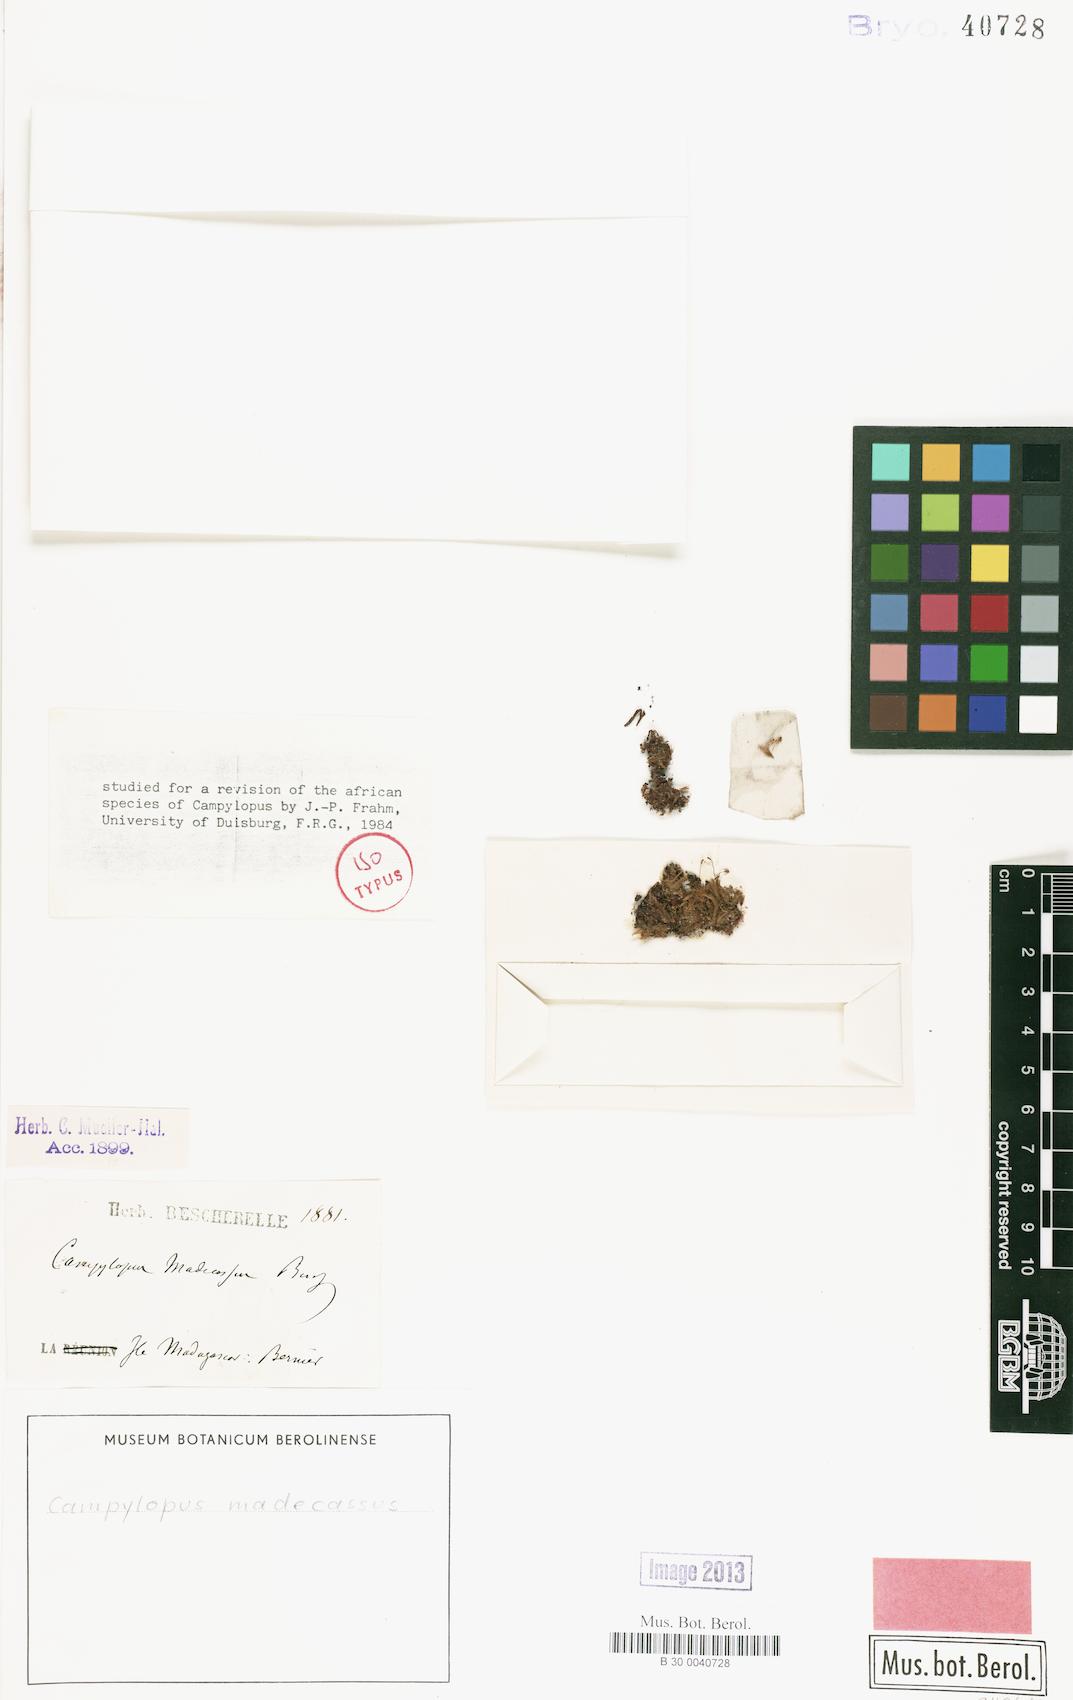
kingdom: Plantae
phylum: Bryophyta
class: Bryopsida
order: Dicranales
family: Leucobryaceae
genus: Campylopus
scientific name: Campylopus arctocarpus
